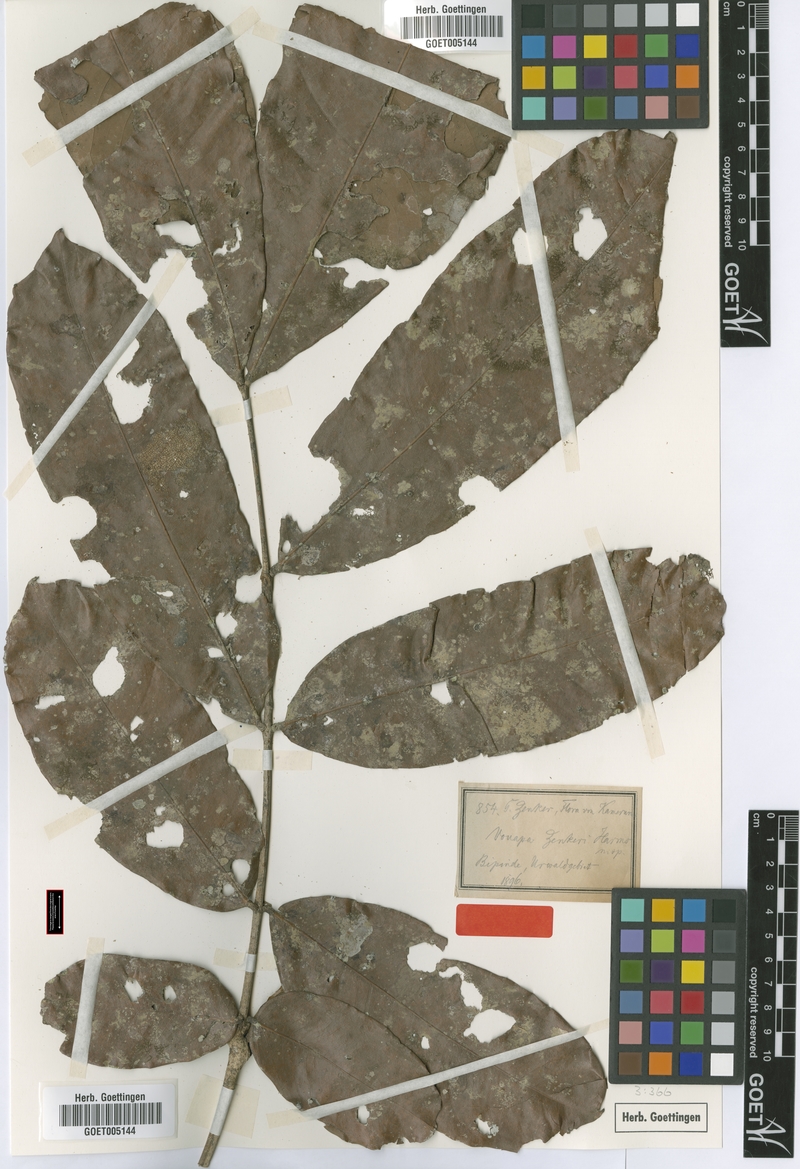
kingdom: Plantae
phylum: Tracheophyta
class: Magnoliopsida
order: Fabales
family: Fabaceae
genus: Gilbertiodendron
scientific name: Gilbertiodendron zenkeri
